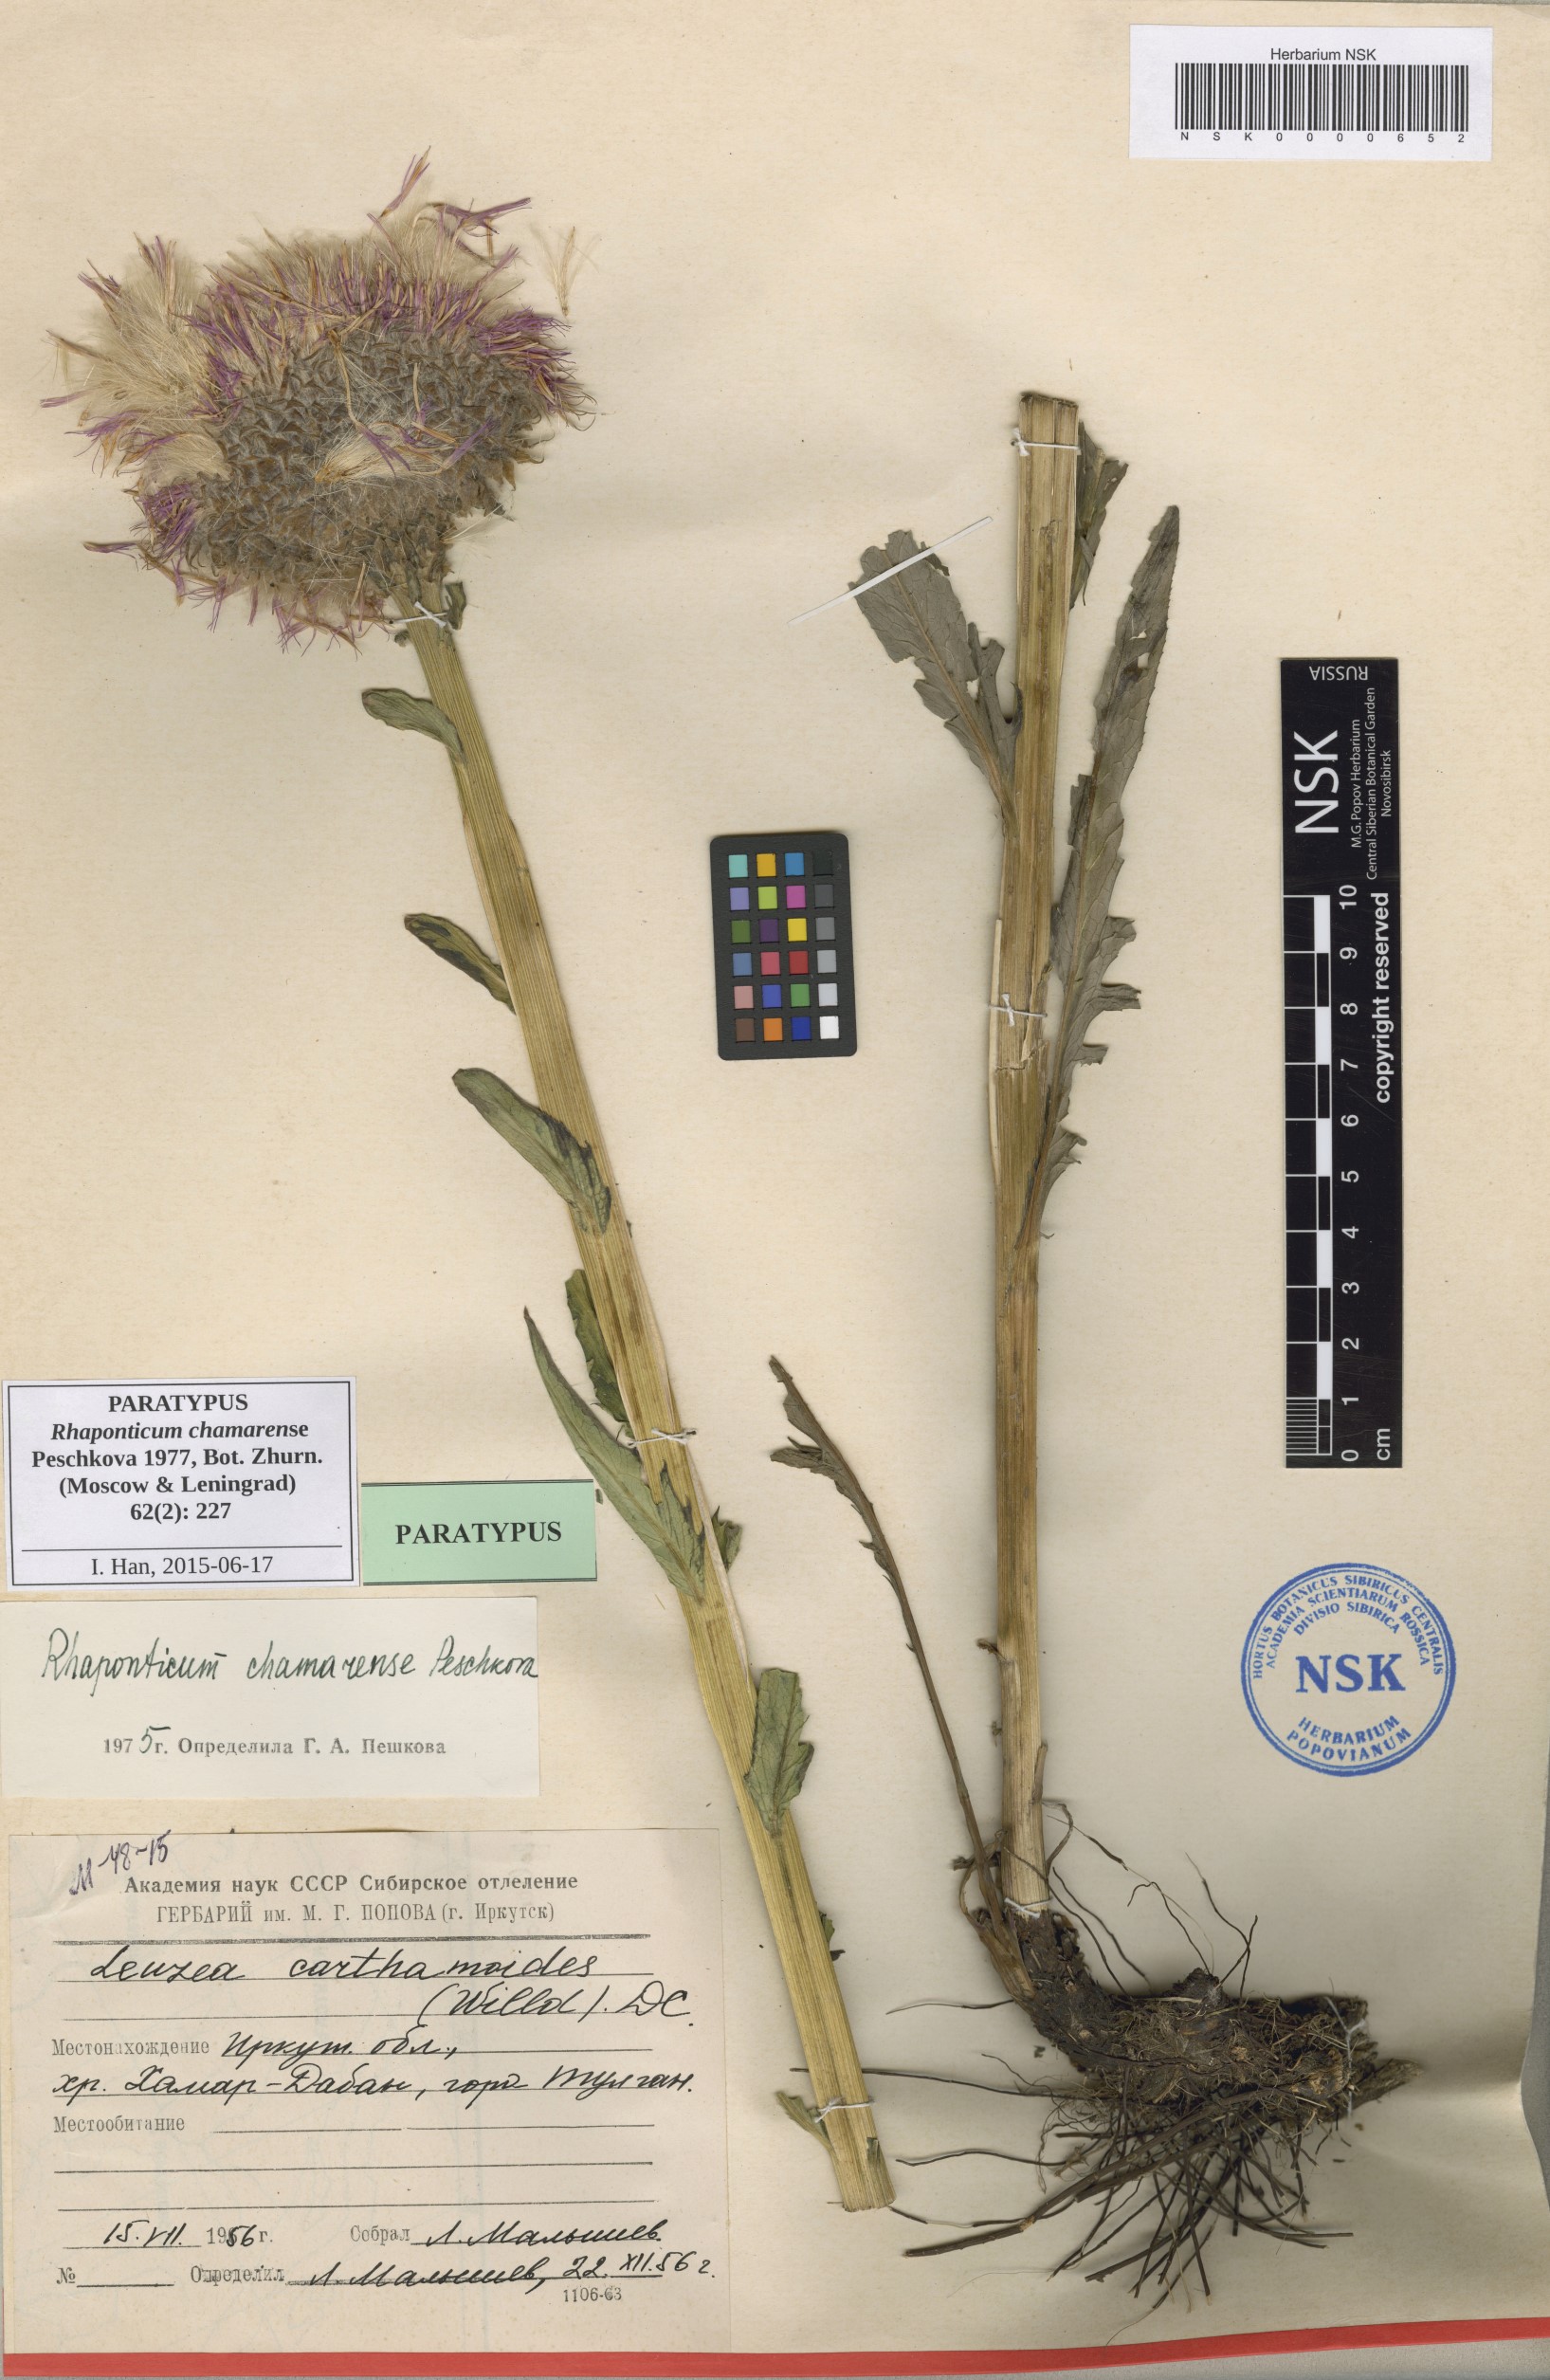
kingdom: Plantae
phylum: Tracheophyta
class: Magnoliopsida
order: Asterales
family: Asteraceae
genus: Leuzea
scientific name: Leuzea carthamoides
